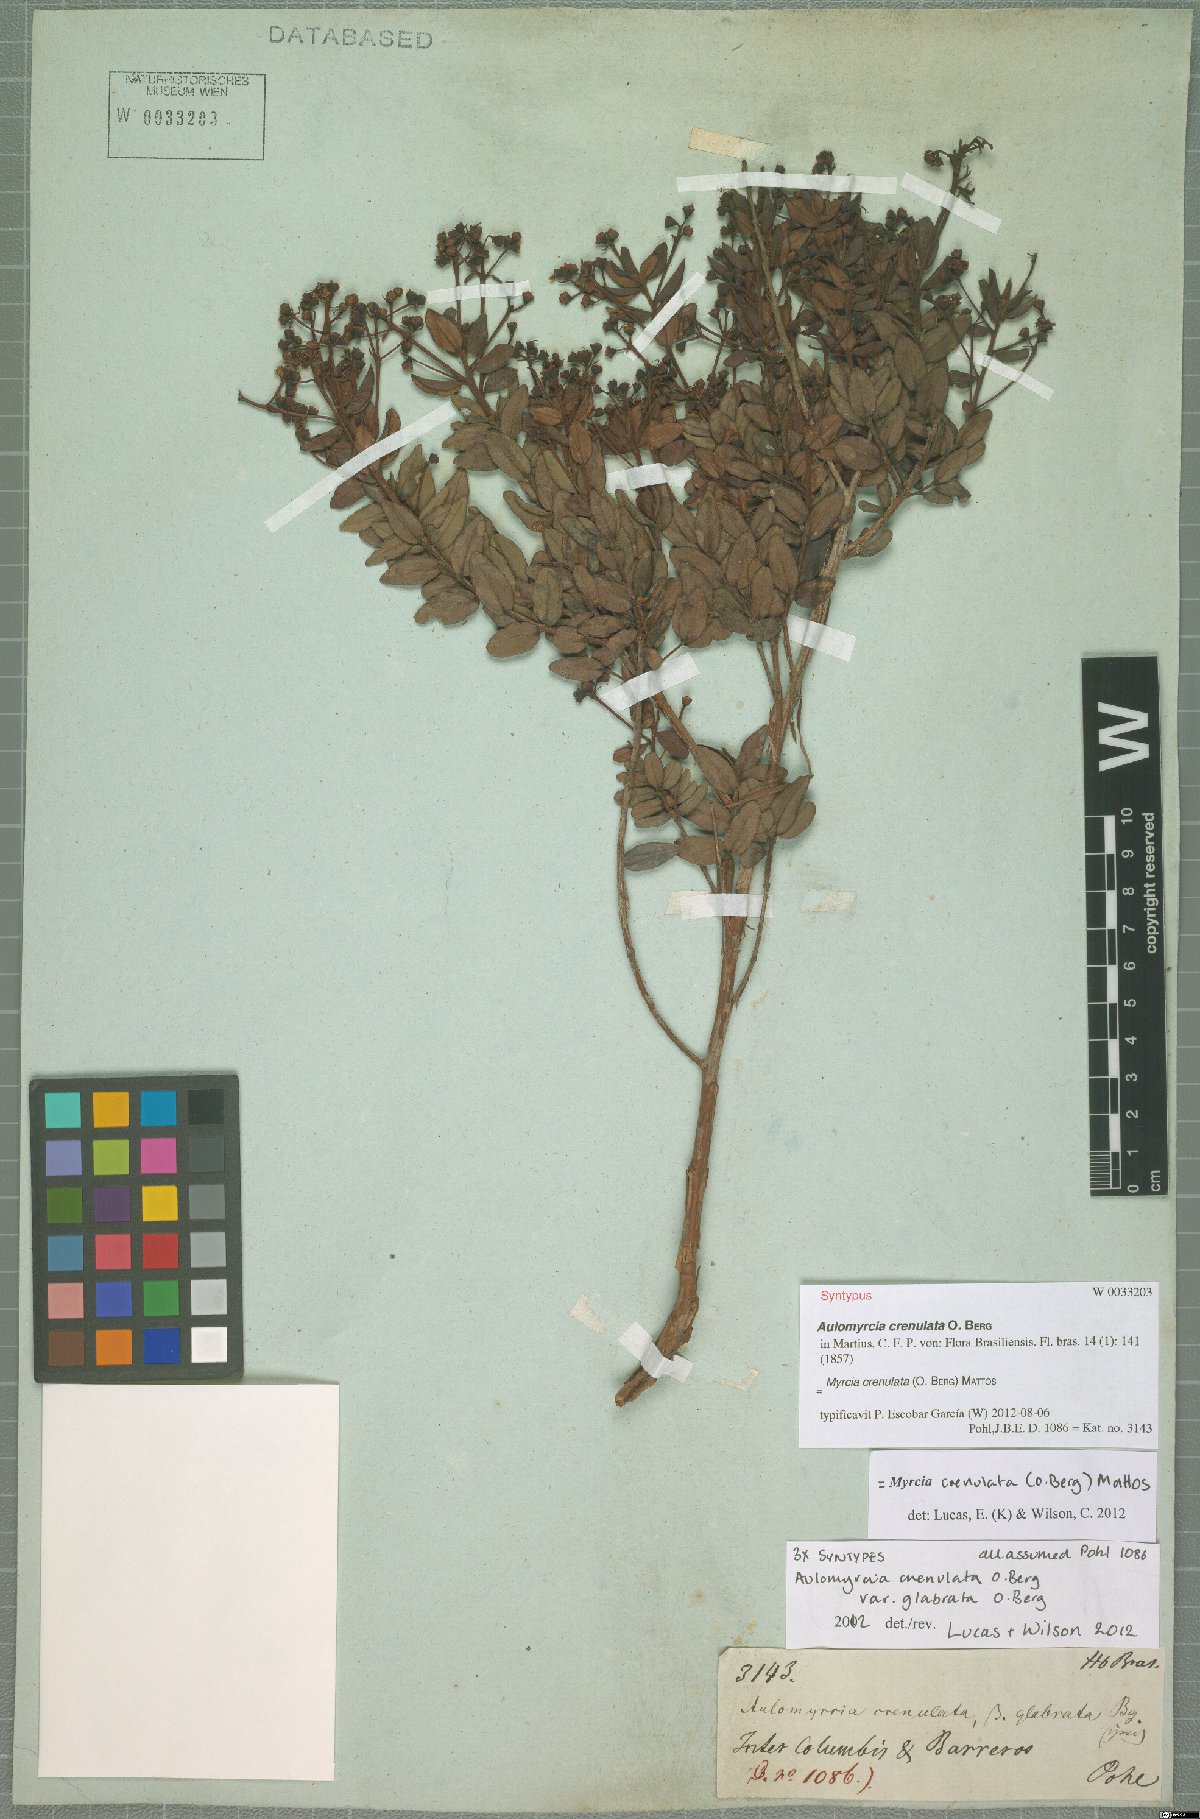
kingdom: Plantae
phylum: Tracheophyta
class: Magnoliopsida
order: Myrtales
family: Myrtaceae
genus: Myrcia
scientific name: Myrcia crenulata
